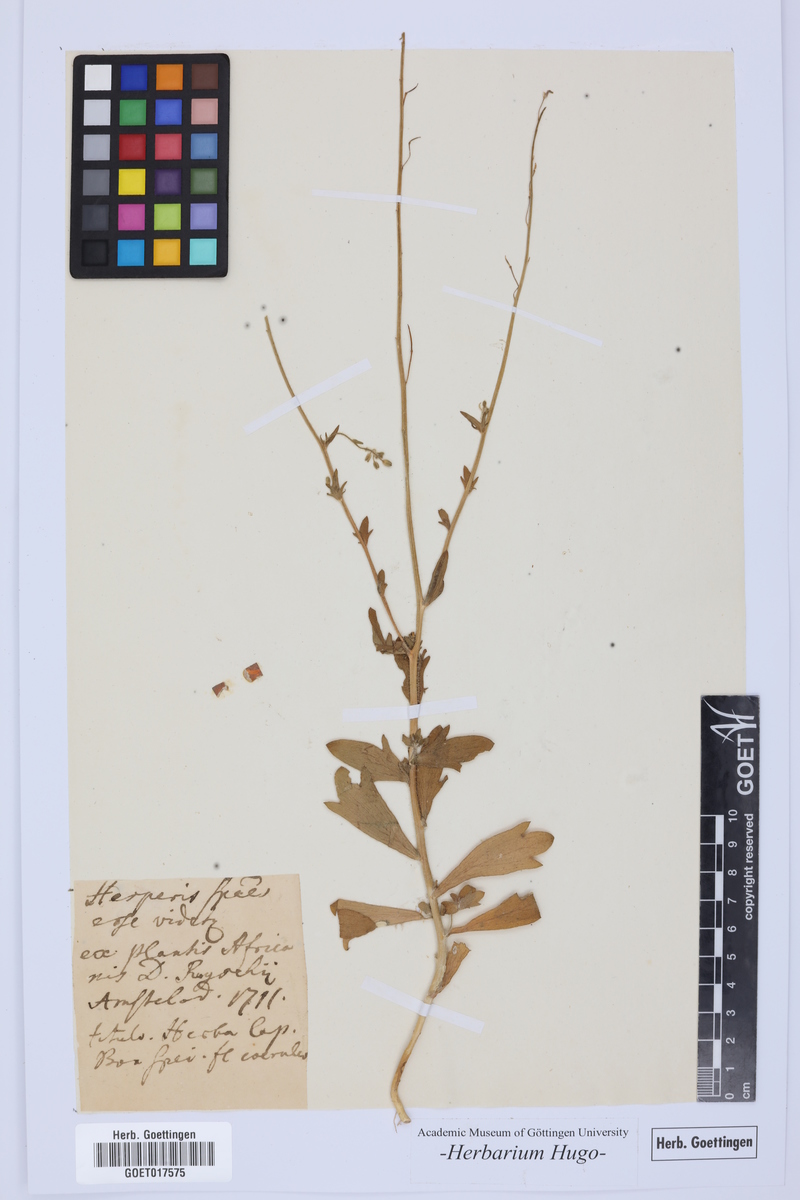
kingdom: Plantae
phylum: Tracheophyta
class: Magnoliopsida
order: Brassicales
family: Brassicaceae
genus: Hesperis
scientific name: Hesperis
